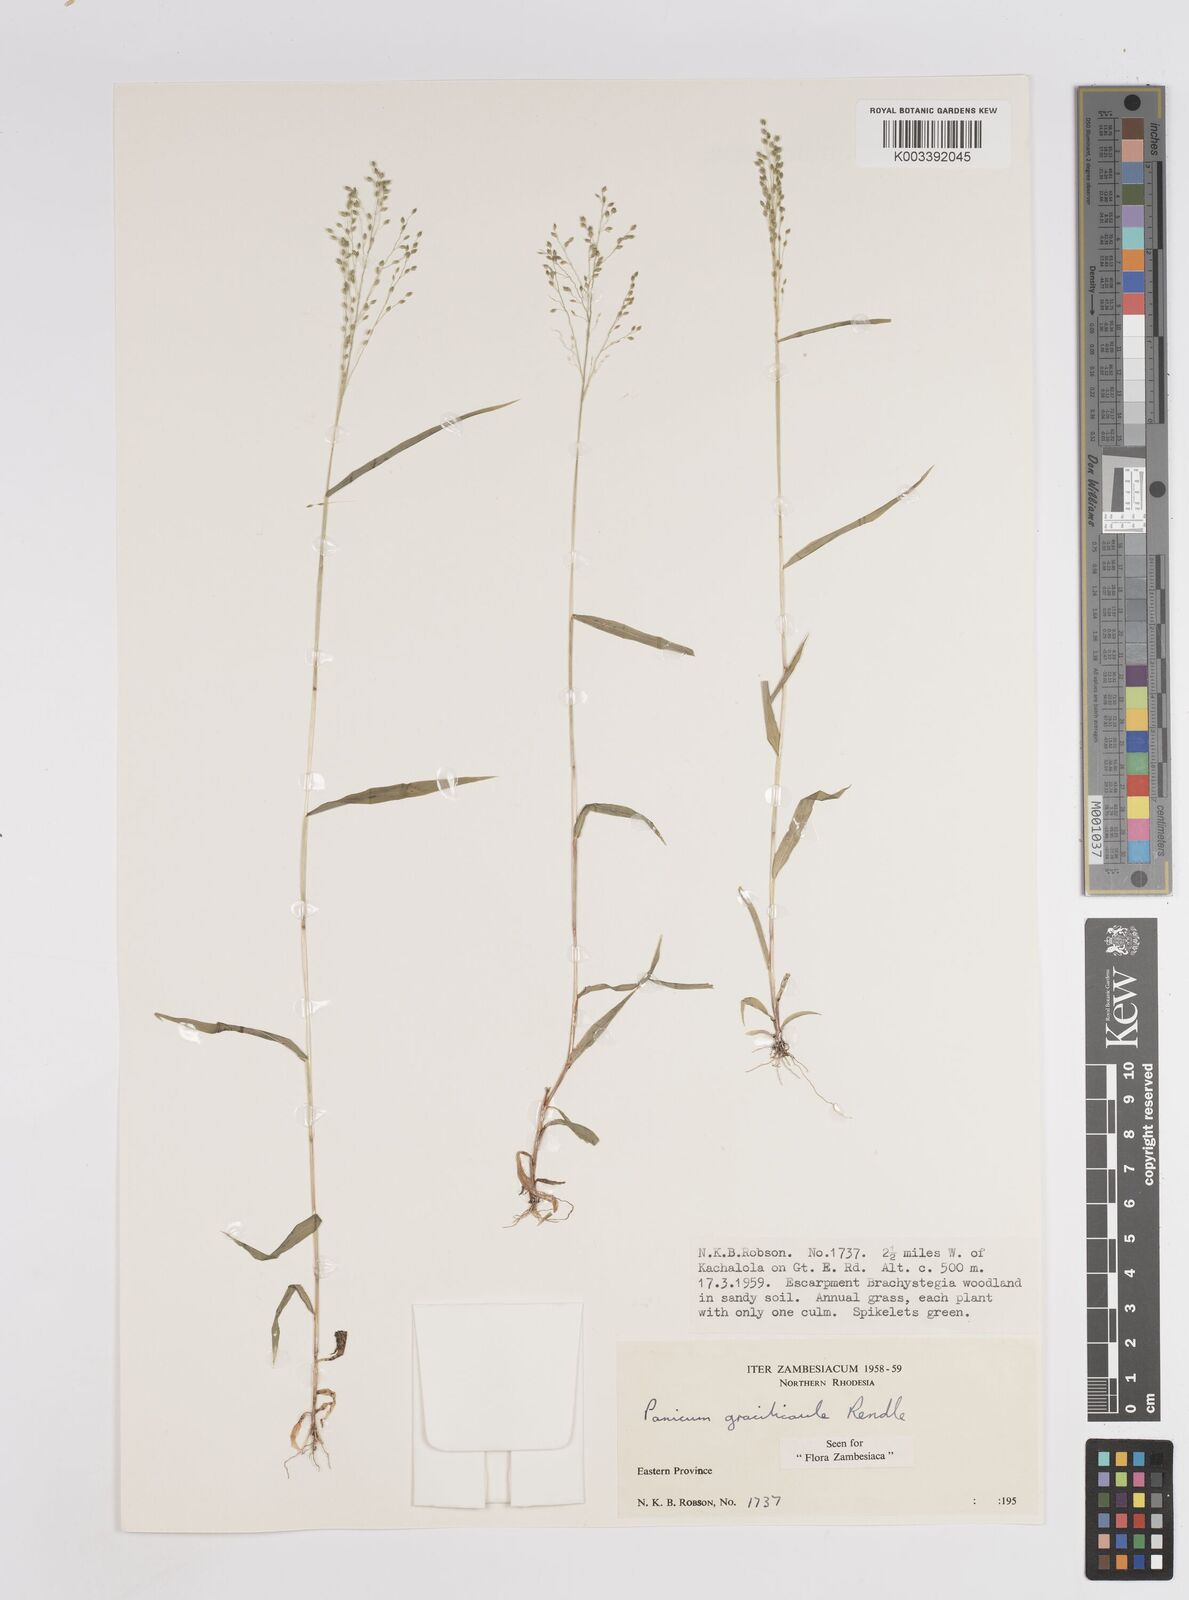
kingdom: Plantae
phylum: Tracheophyta
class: Liliopsida
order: Poales
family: Poaceae
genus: Trichanthecium
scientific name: Trichanthecium gracilicaule
